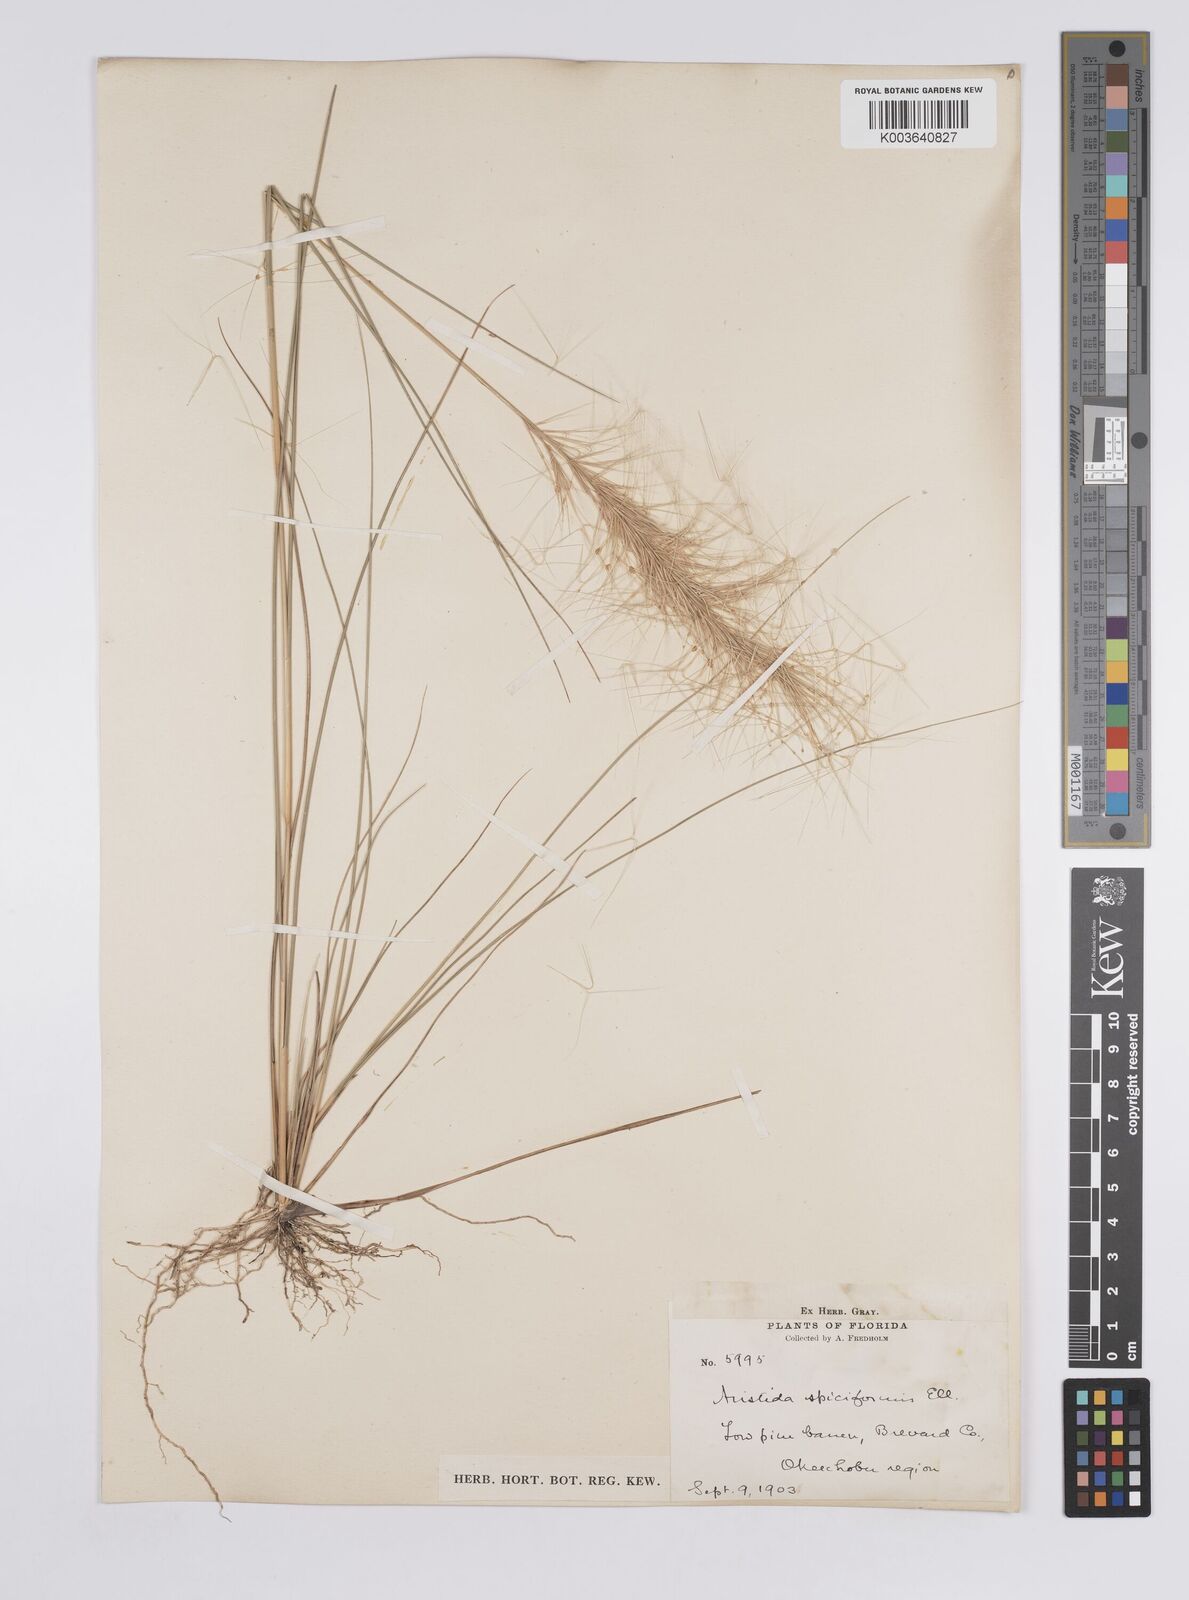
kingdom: Plantae
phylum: Tracheophyta
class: Liliopsida
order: Poales
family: Poaceae
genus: Aristida
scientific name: Aristida spiciformis
